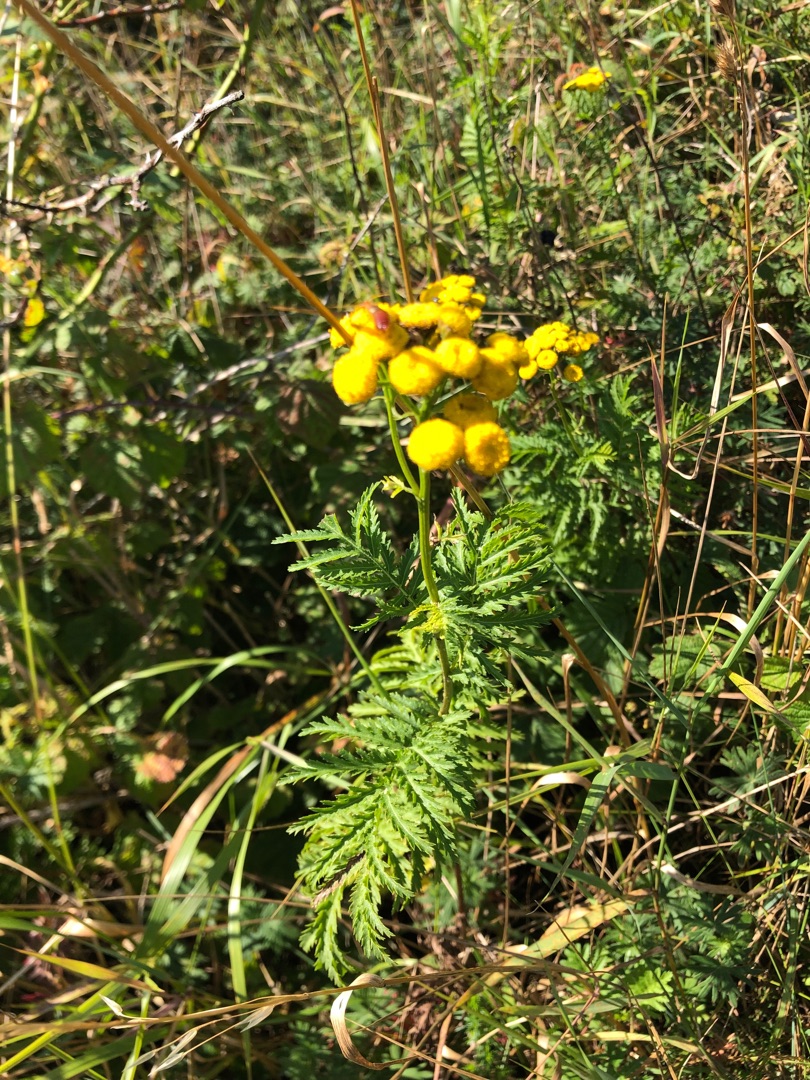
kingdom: Plantae
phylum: Tracheophyta
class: Magnoliopsida
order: Asterales
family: Asteraceae
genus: Tanacetum
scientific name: Tanacetum vulgare
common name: Rejnfan
